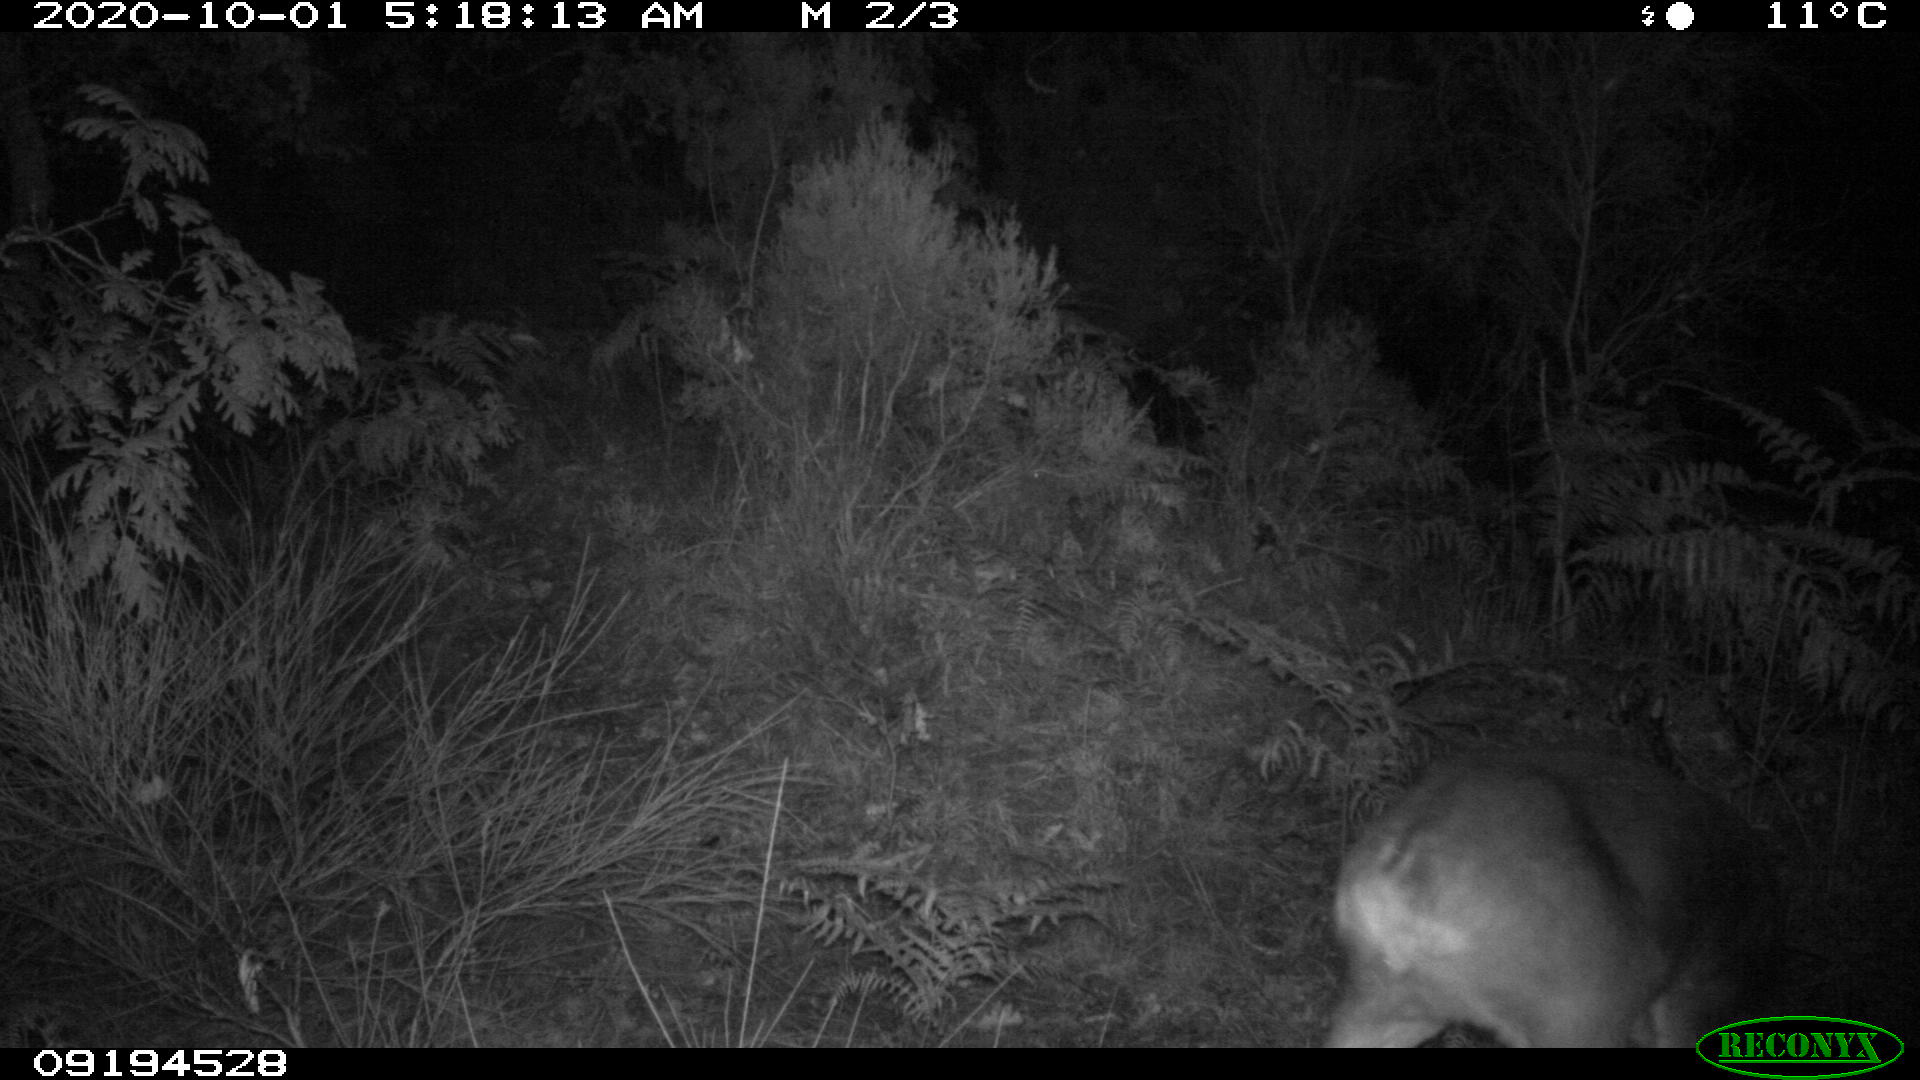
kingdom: Animalia
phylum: Chordata
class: Mammalia
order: Artiodactyla
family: Cervidae
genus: Capreolus
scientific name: Capreolus capreolus
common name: Western roe deer
